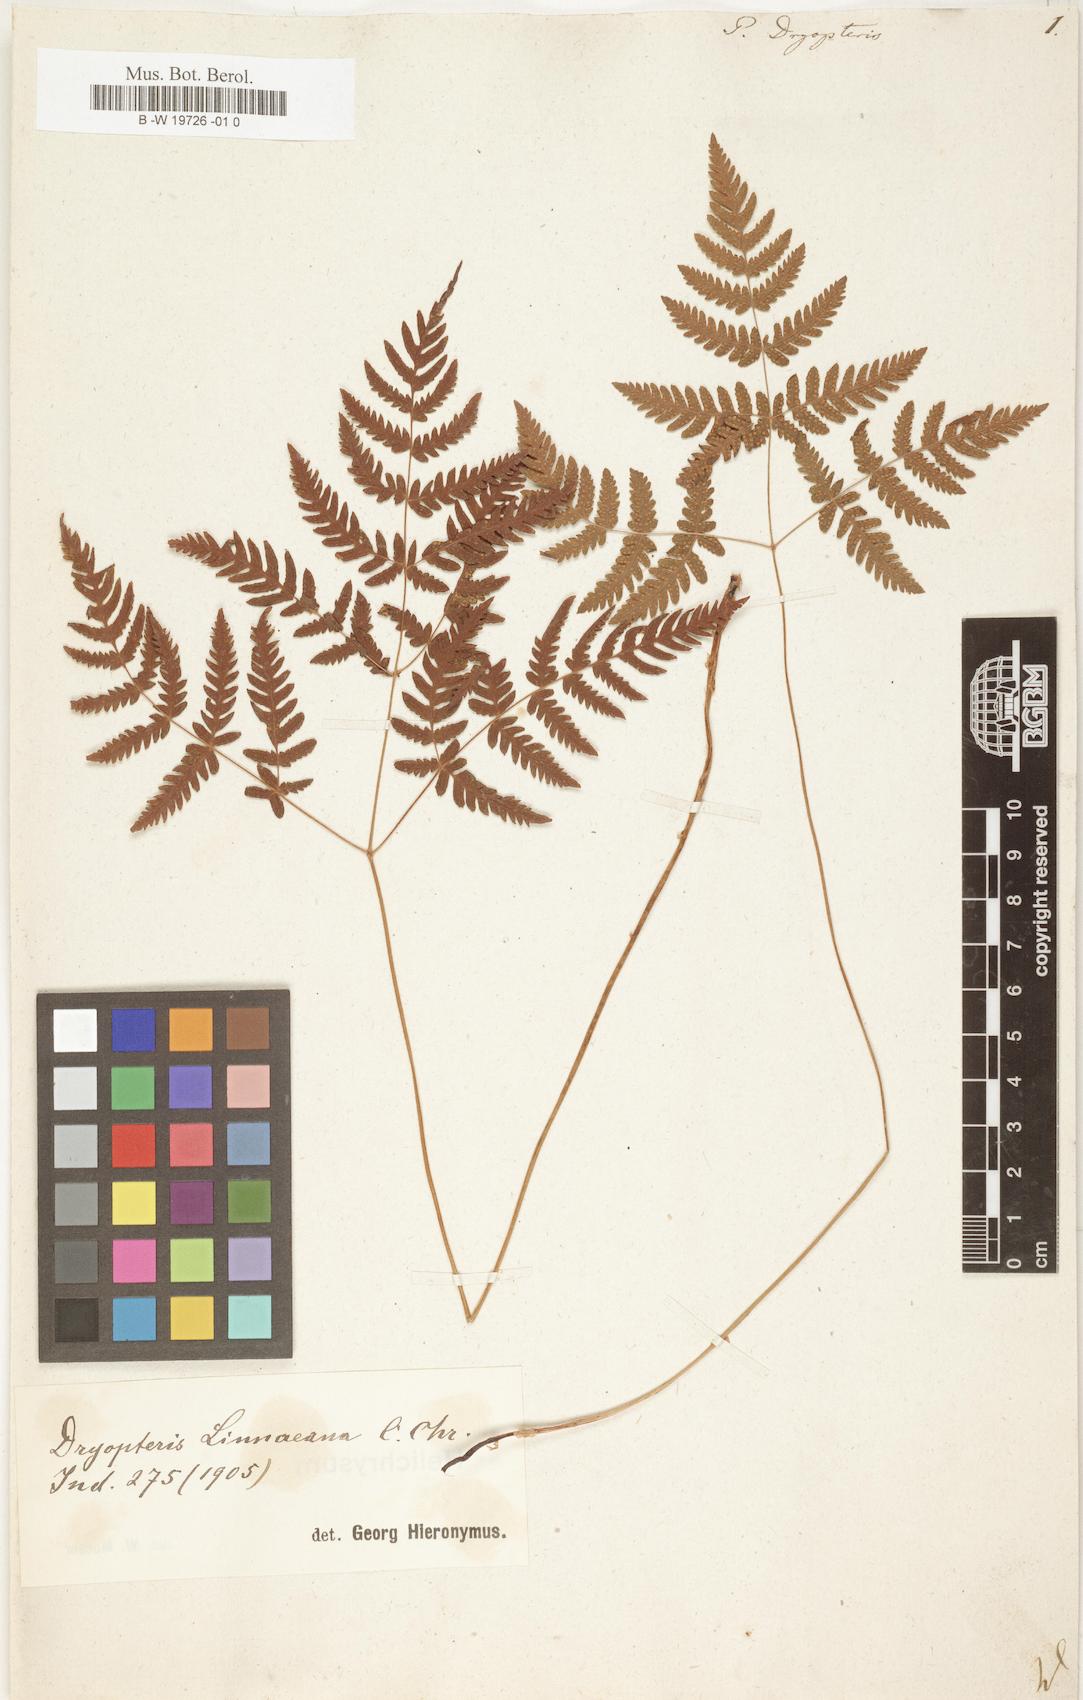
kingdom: Plantae
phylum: Tracheophyta
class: Polypodiopsida
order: Polypodiales
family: Cystopteridaceae
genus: Gymnocarpium
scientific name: Gymnocarpium dryopteris
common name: Oak fern
